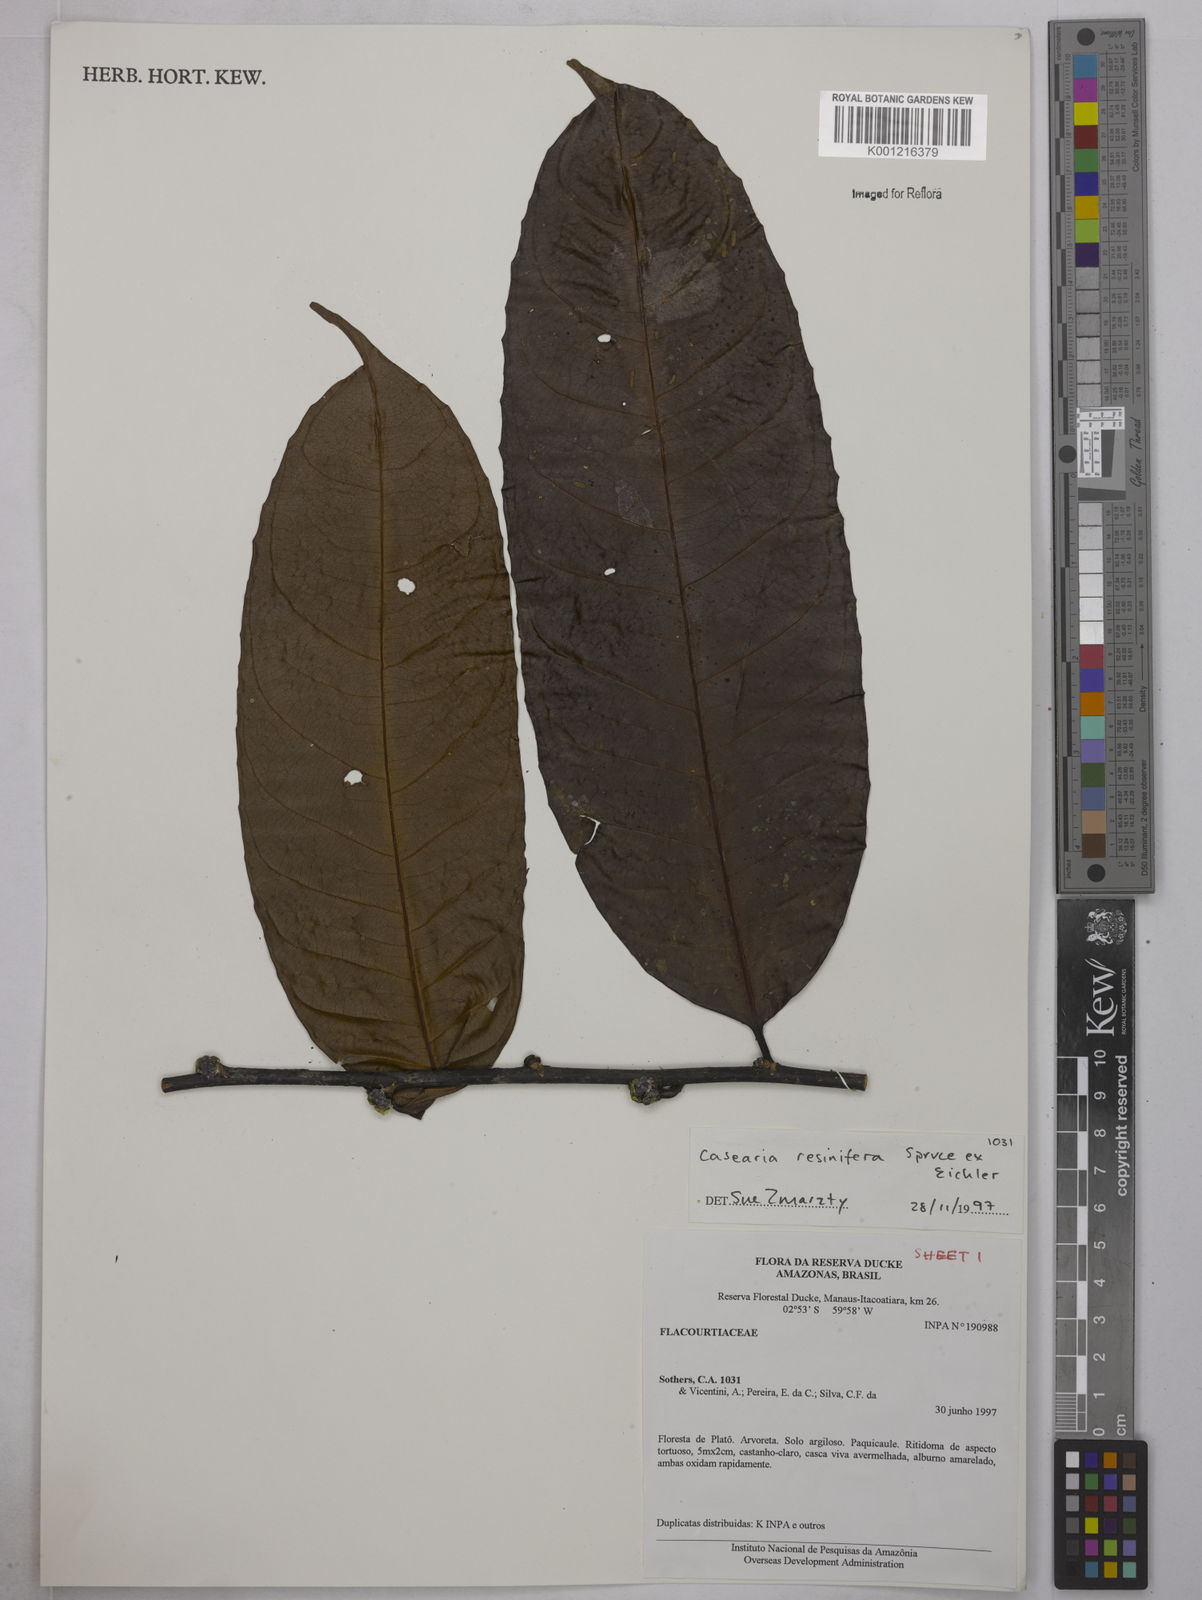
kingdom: Plantae
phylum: Tracheophyta
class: Magnoliopsida
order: Malpighiales
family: Salicaceae
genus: Casearia
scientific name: Casearia resinifera
